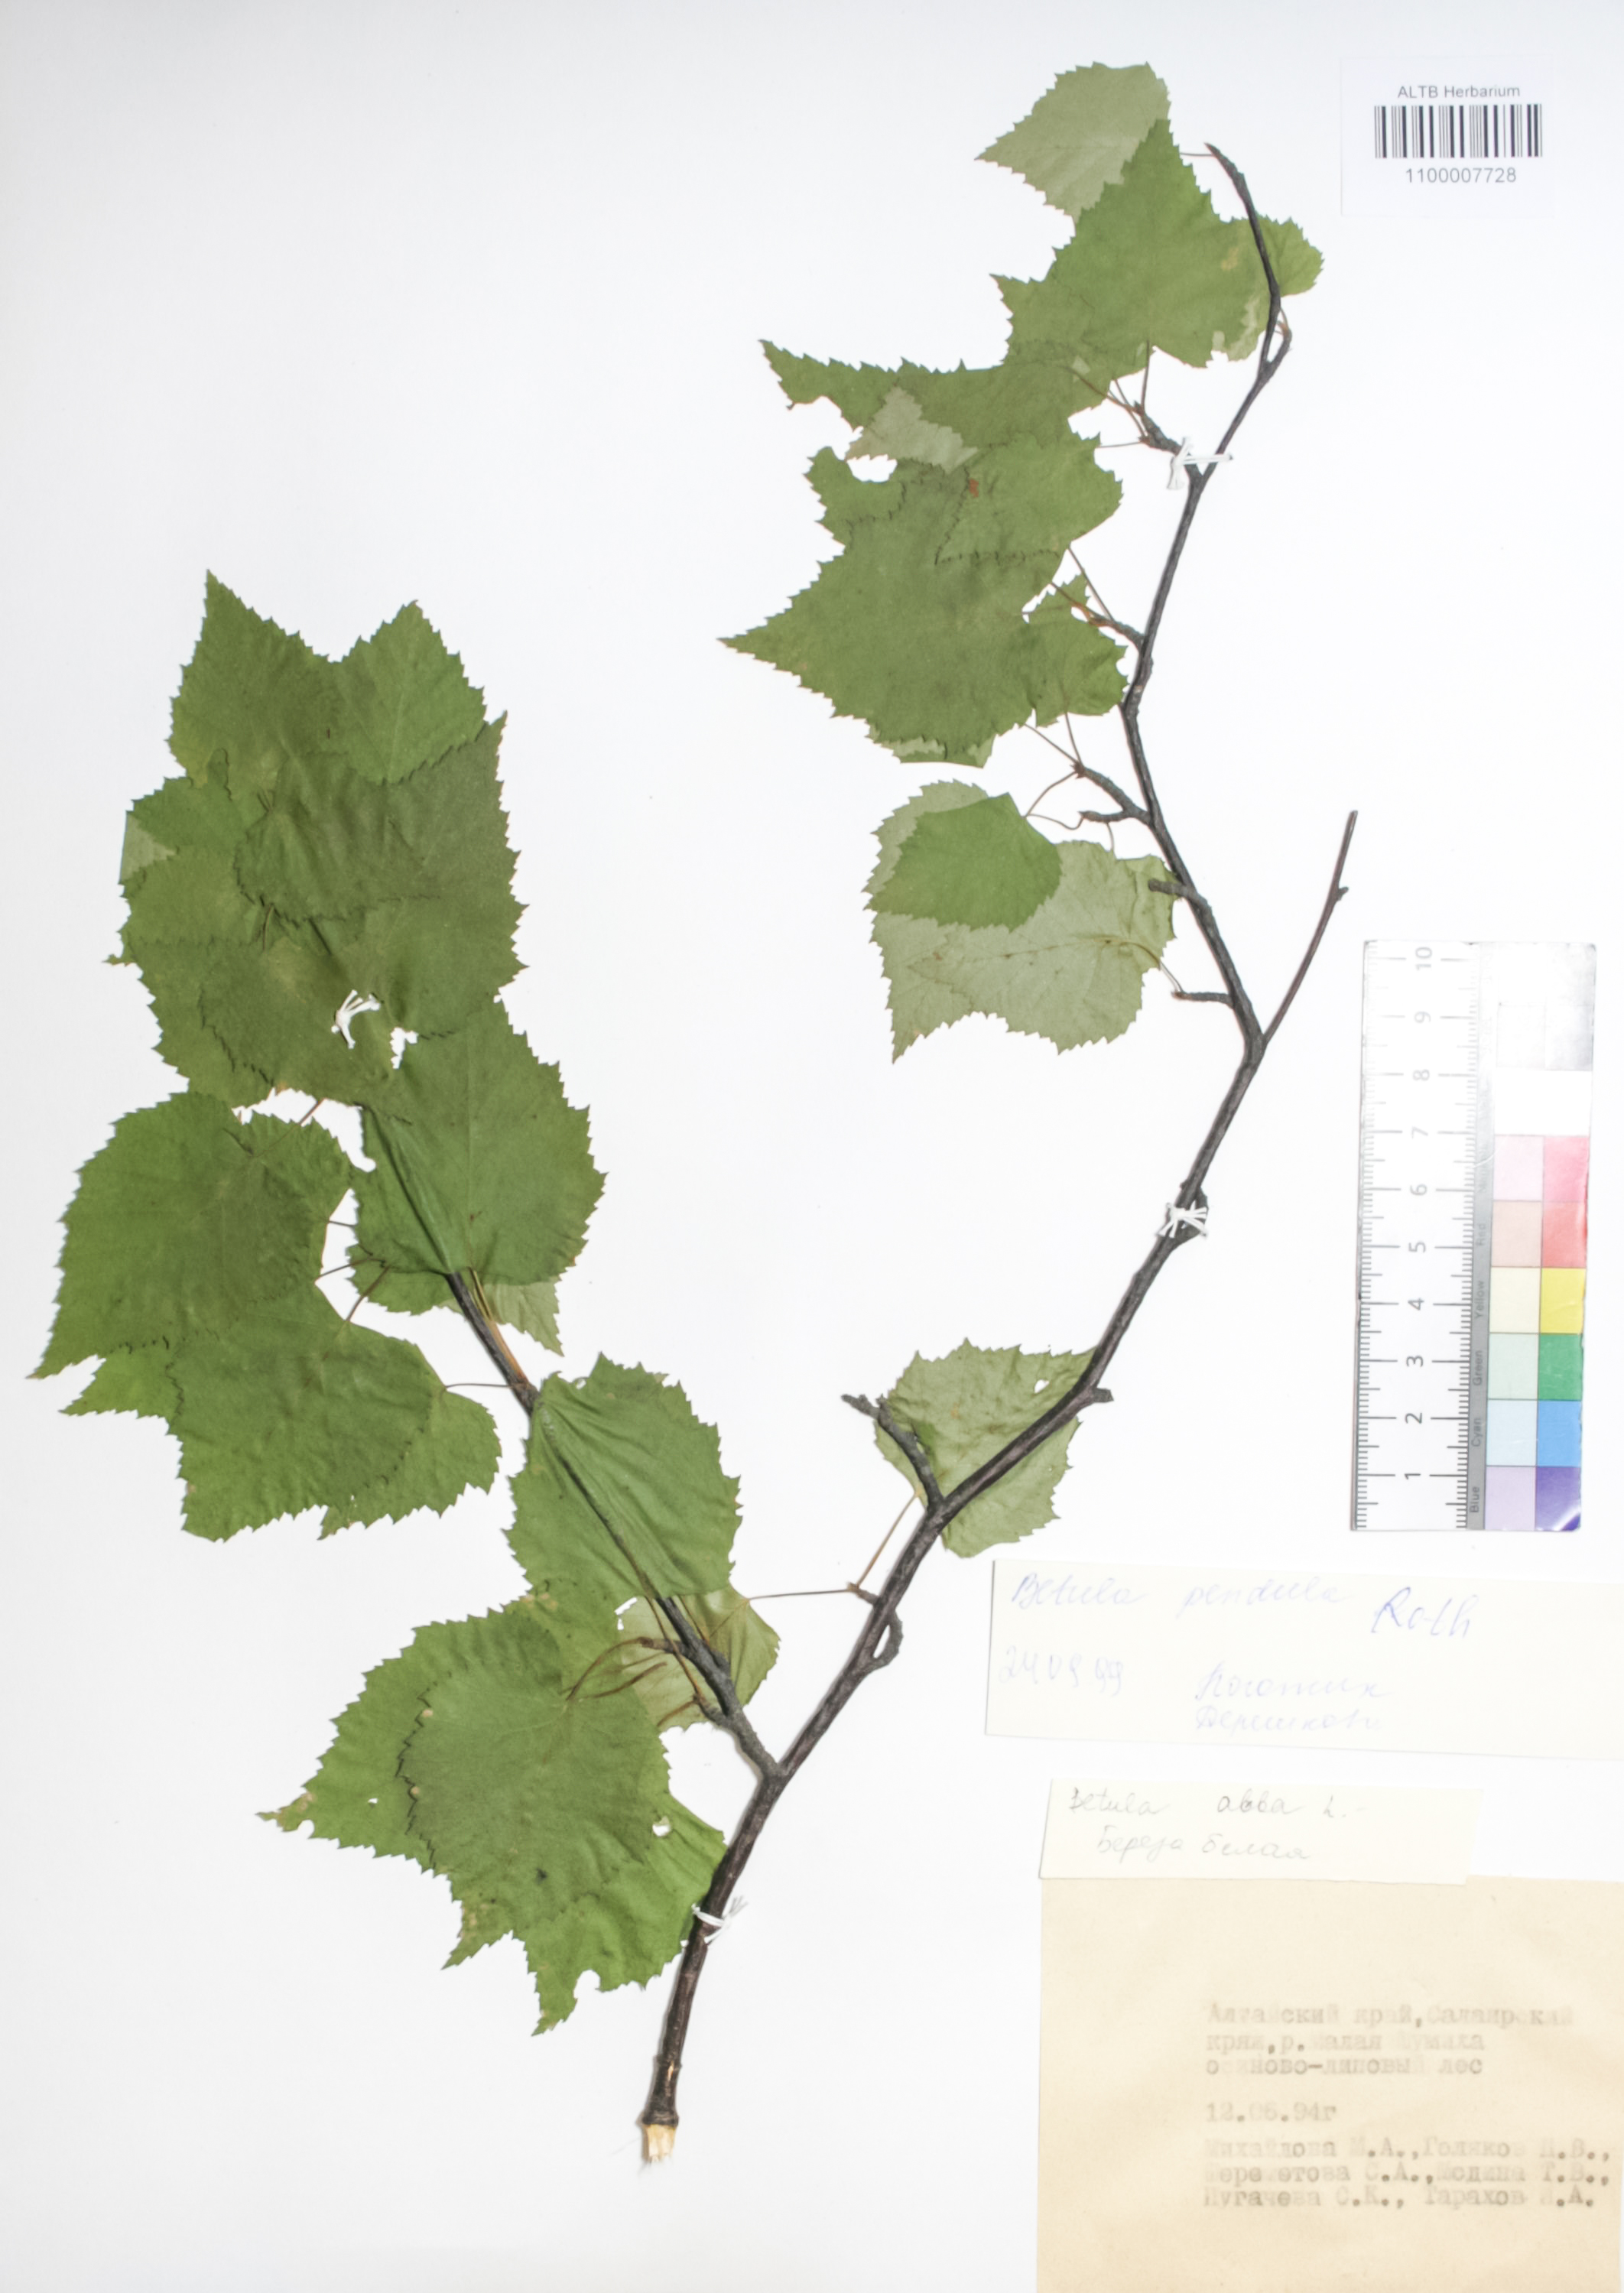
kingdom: Plantae
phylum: Tracheophyta
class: Magnoliopsida
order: Fagales
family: Betulaceae
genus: Betula
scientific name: Betula pendula
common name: Silver birch
